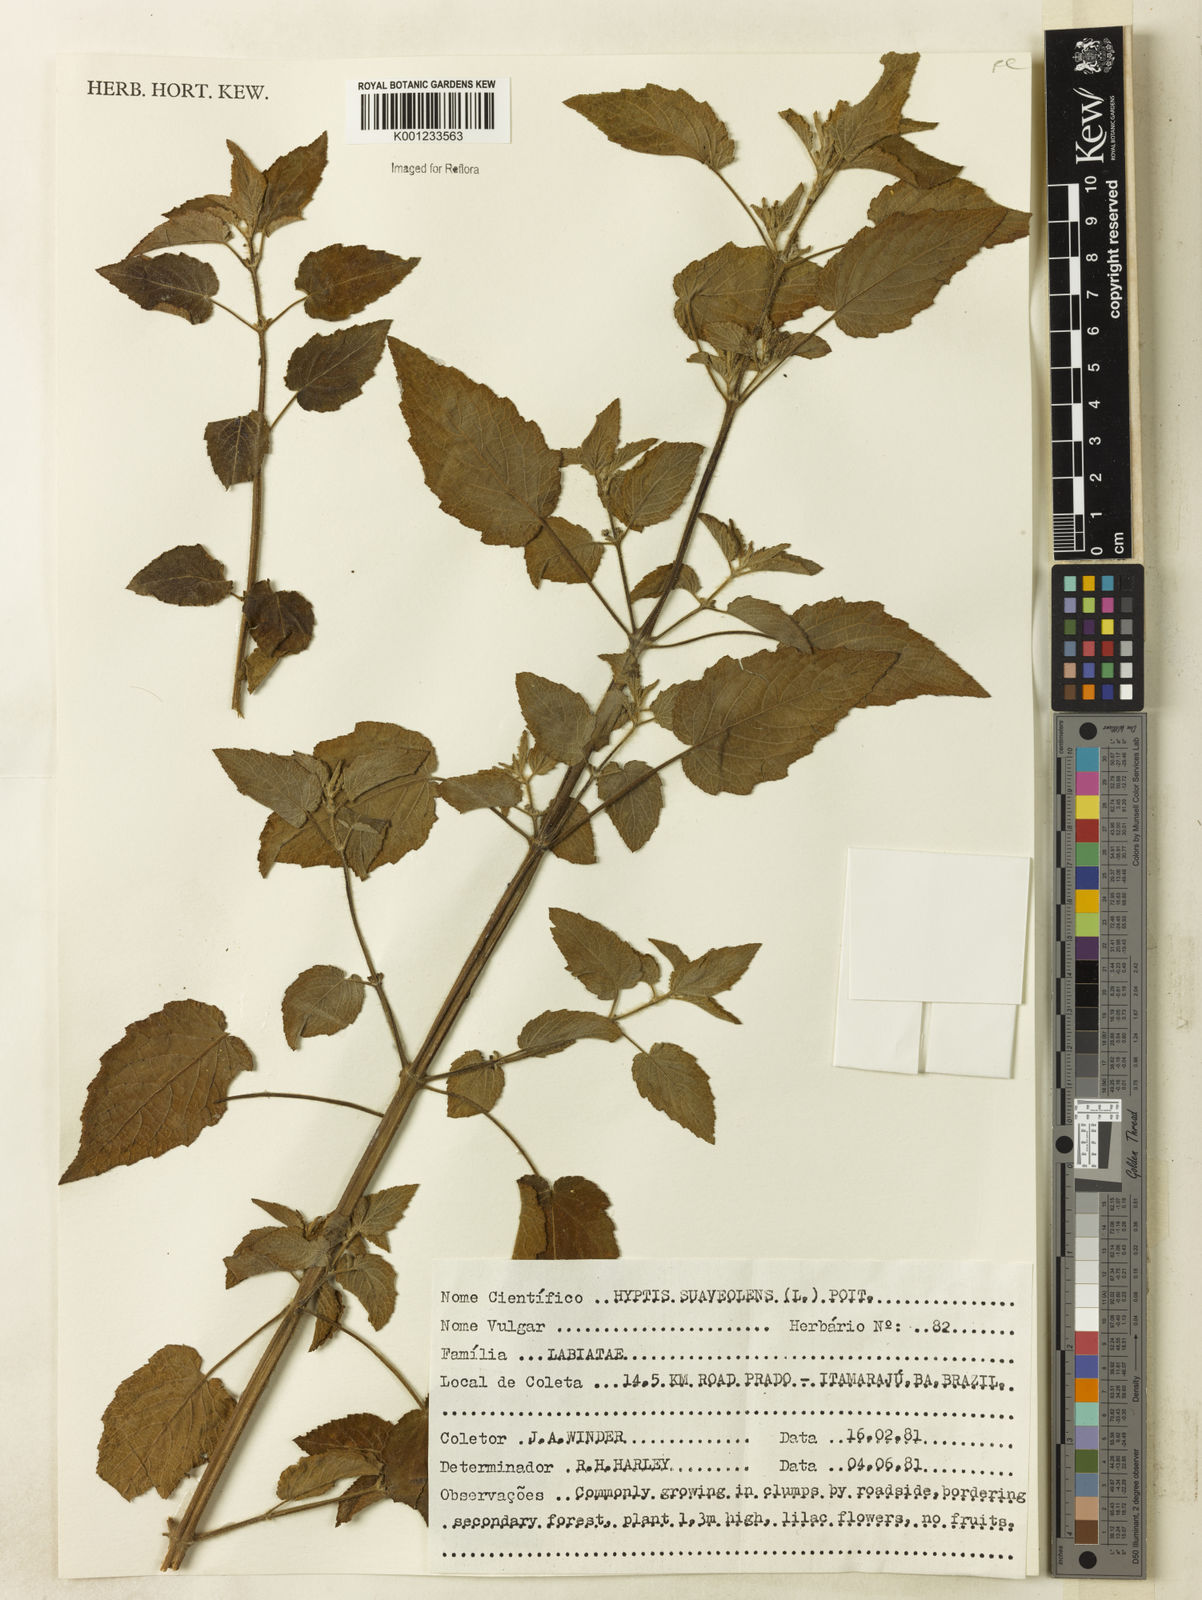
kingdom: Plantae
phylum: Tracheophyta
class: Magnoliopsida
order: Lamiales
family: Lamiaceae
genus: Mesosphaerum
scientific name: Mesosphaerum suaveolens
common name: Pignut
